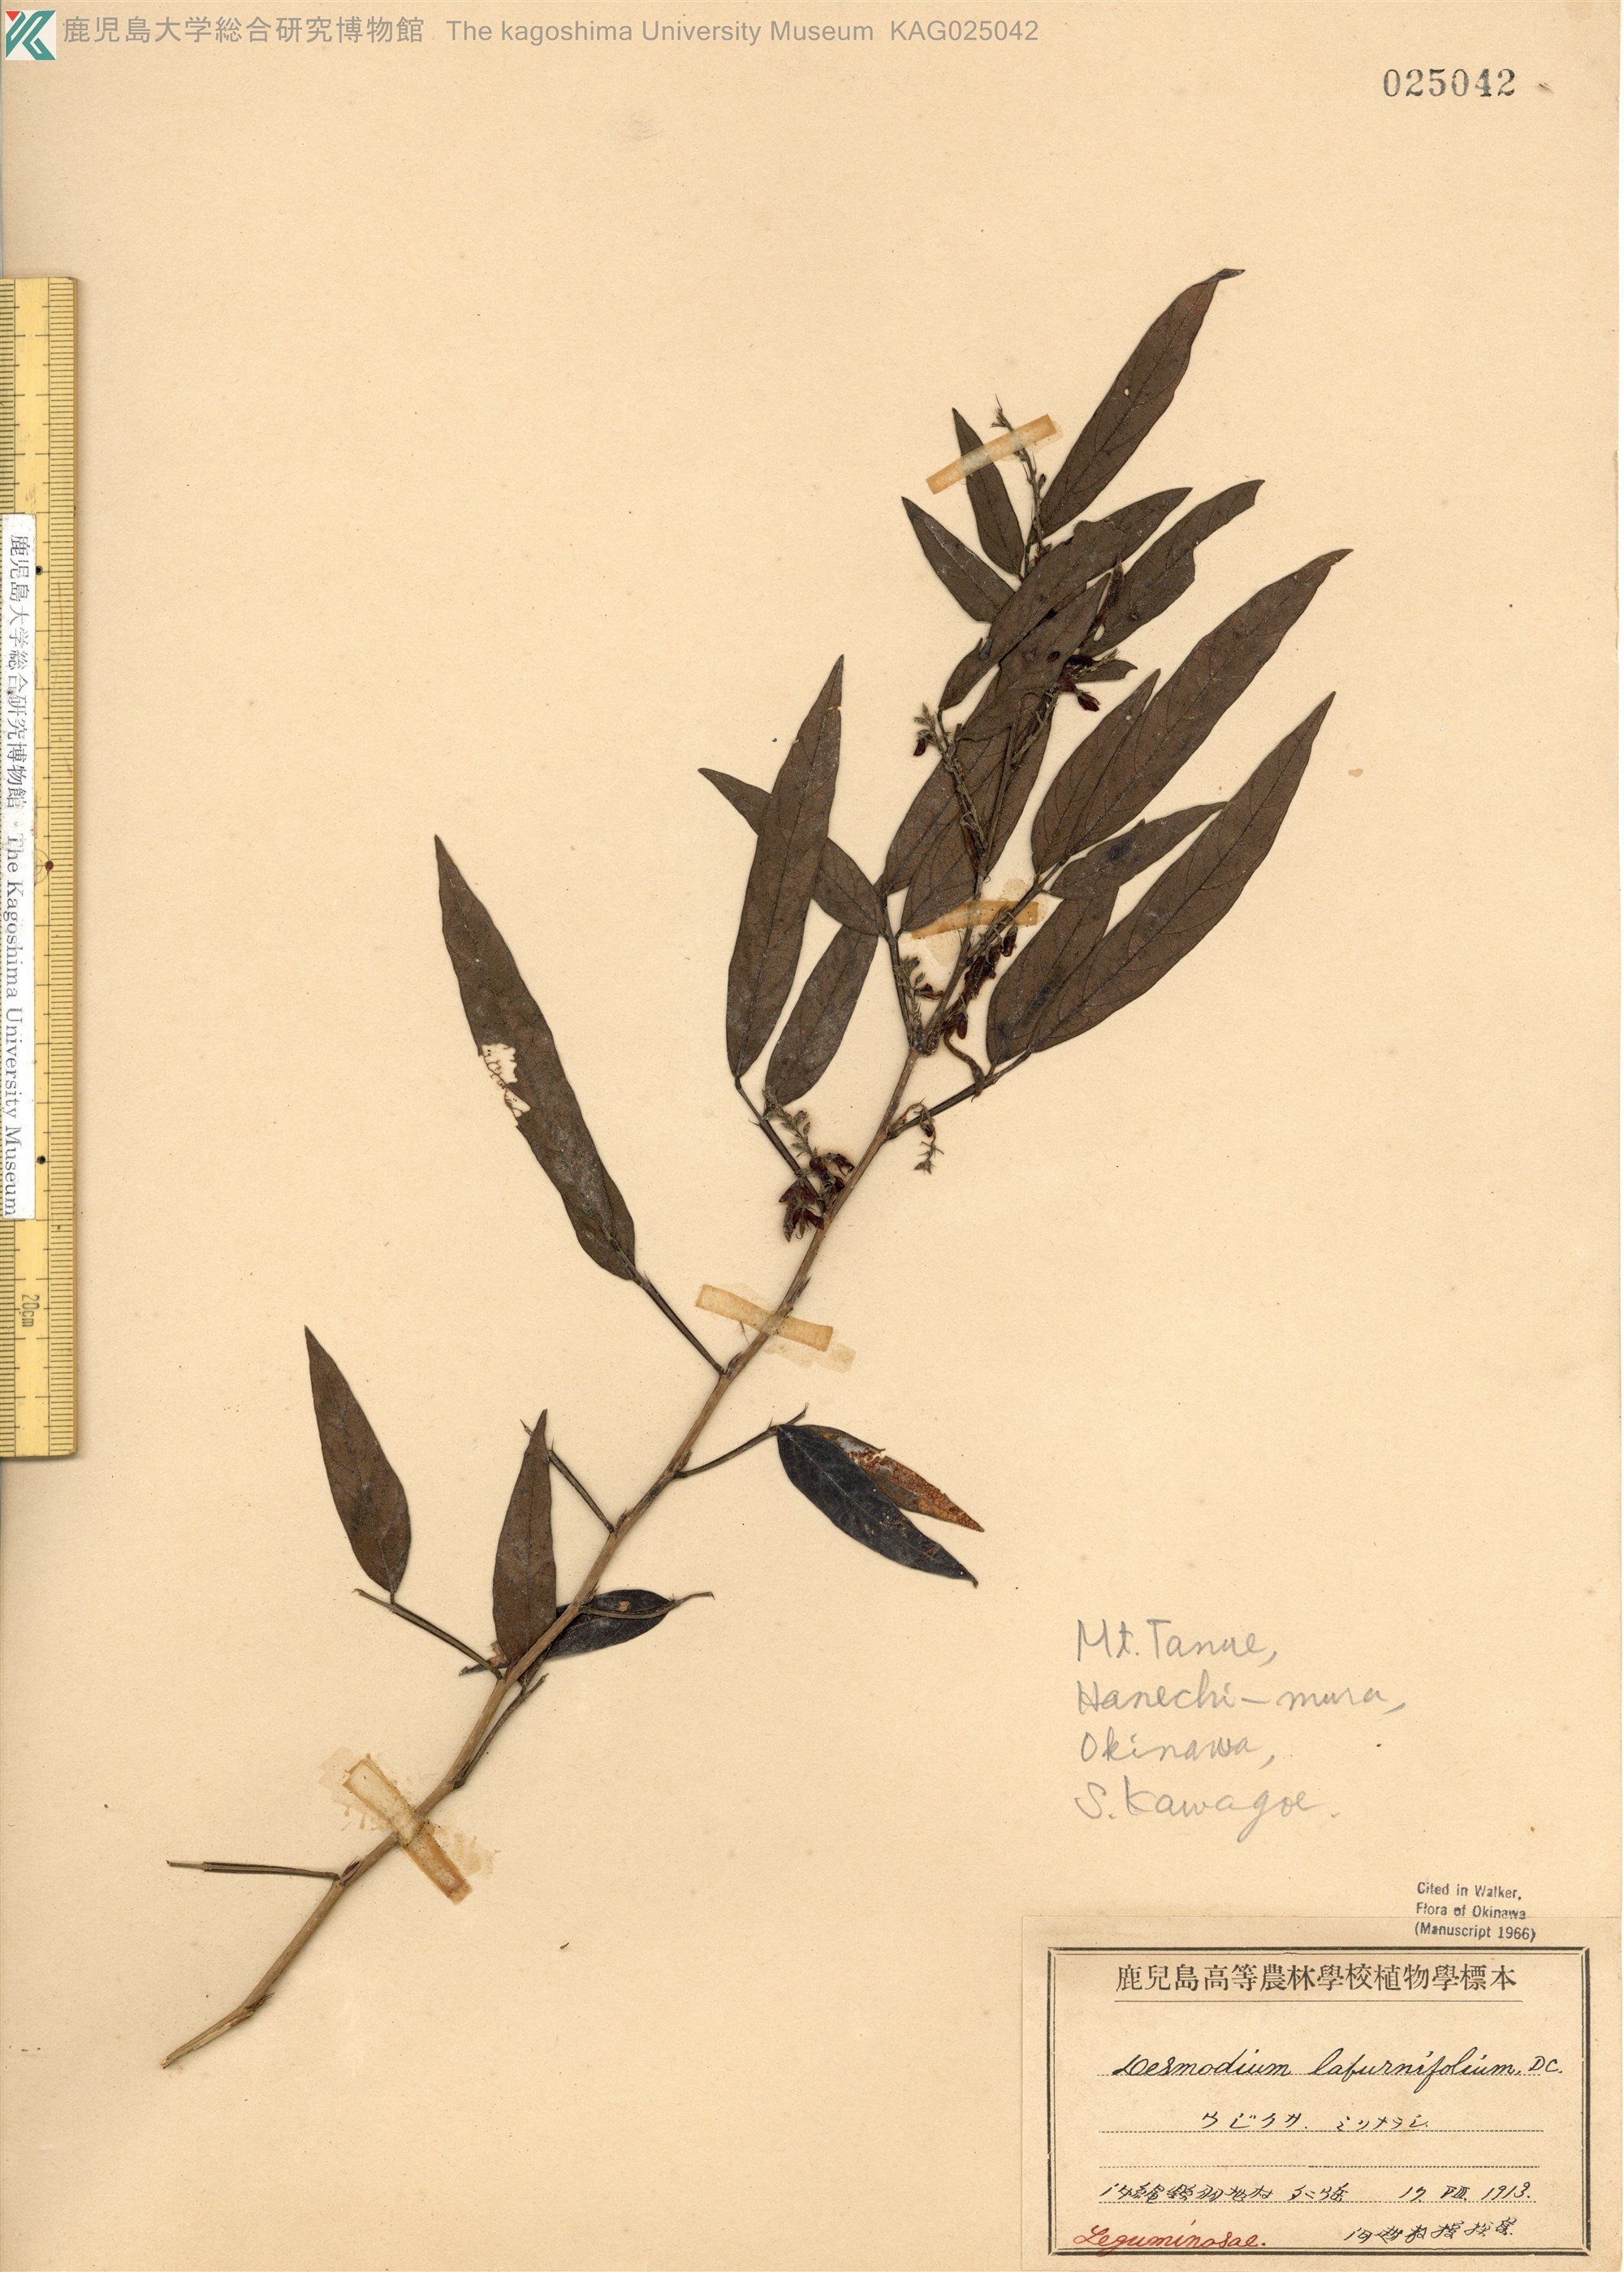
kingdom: Plantae
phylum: Tracheophyta
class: Magnoliopsida
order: Fabales
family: Fabaceae
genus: Ohwia
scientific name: Ohwia caudata
